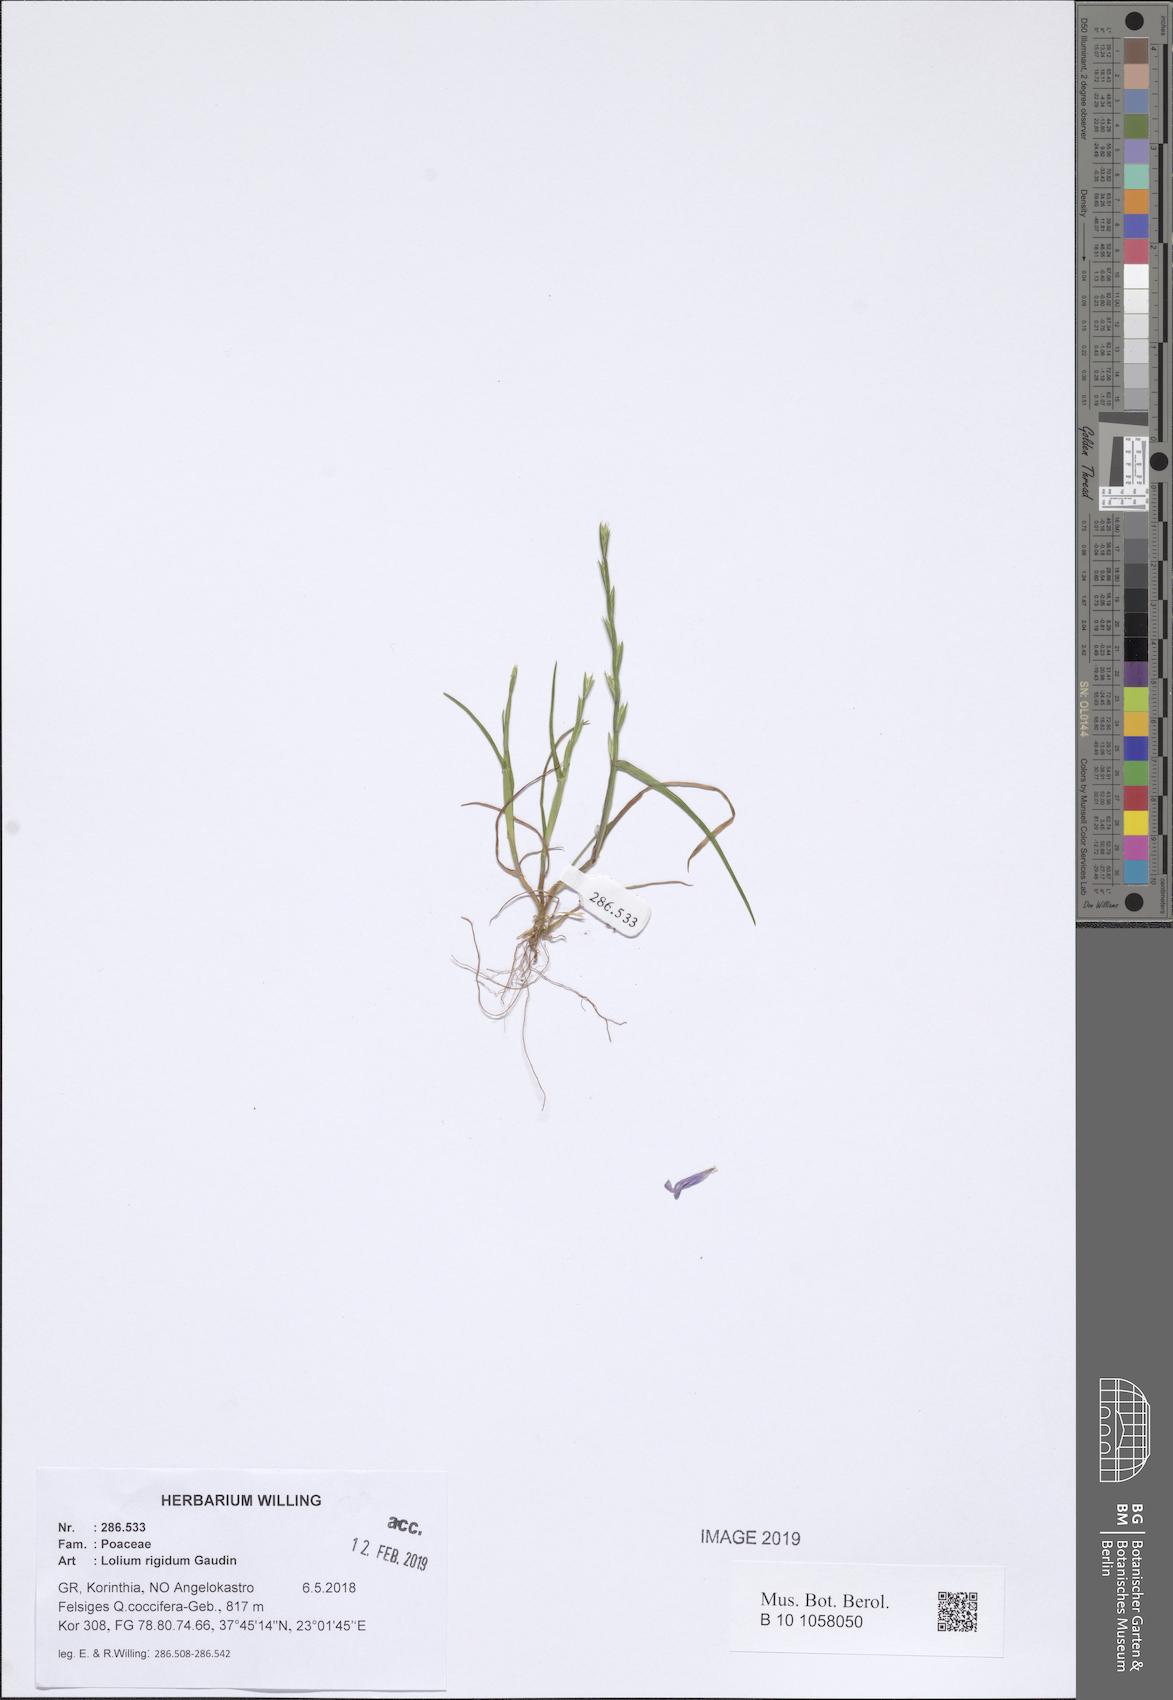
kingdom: Plantae
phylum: Tracheophyta
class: Liliopsida
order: Poales
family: Poaceae
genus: Lolium
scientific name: Lolium rigidum
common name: Wimmera ryegrass
